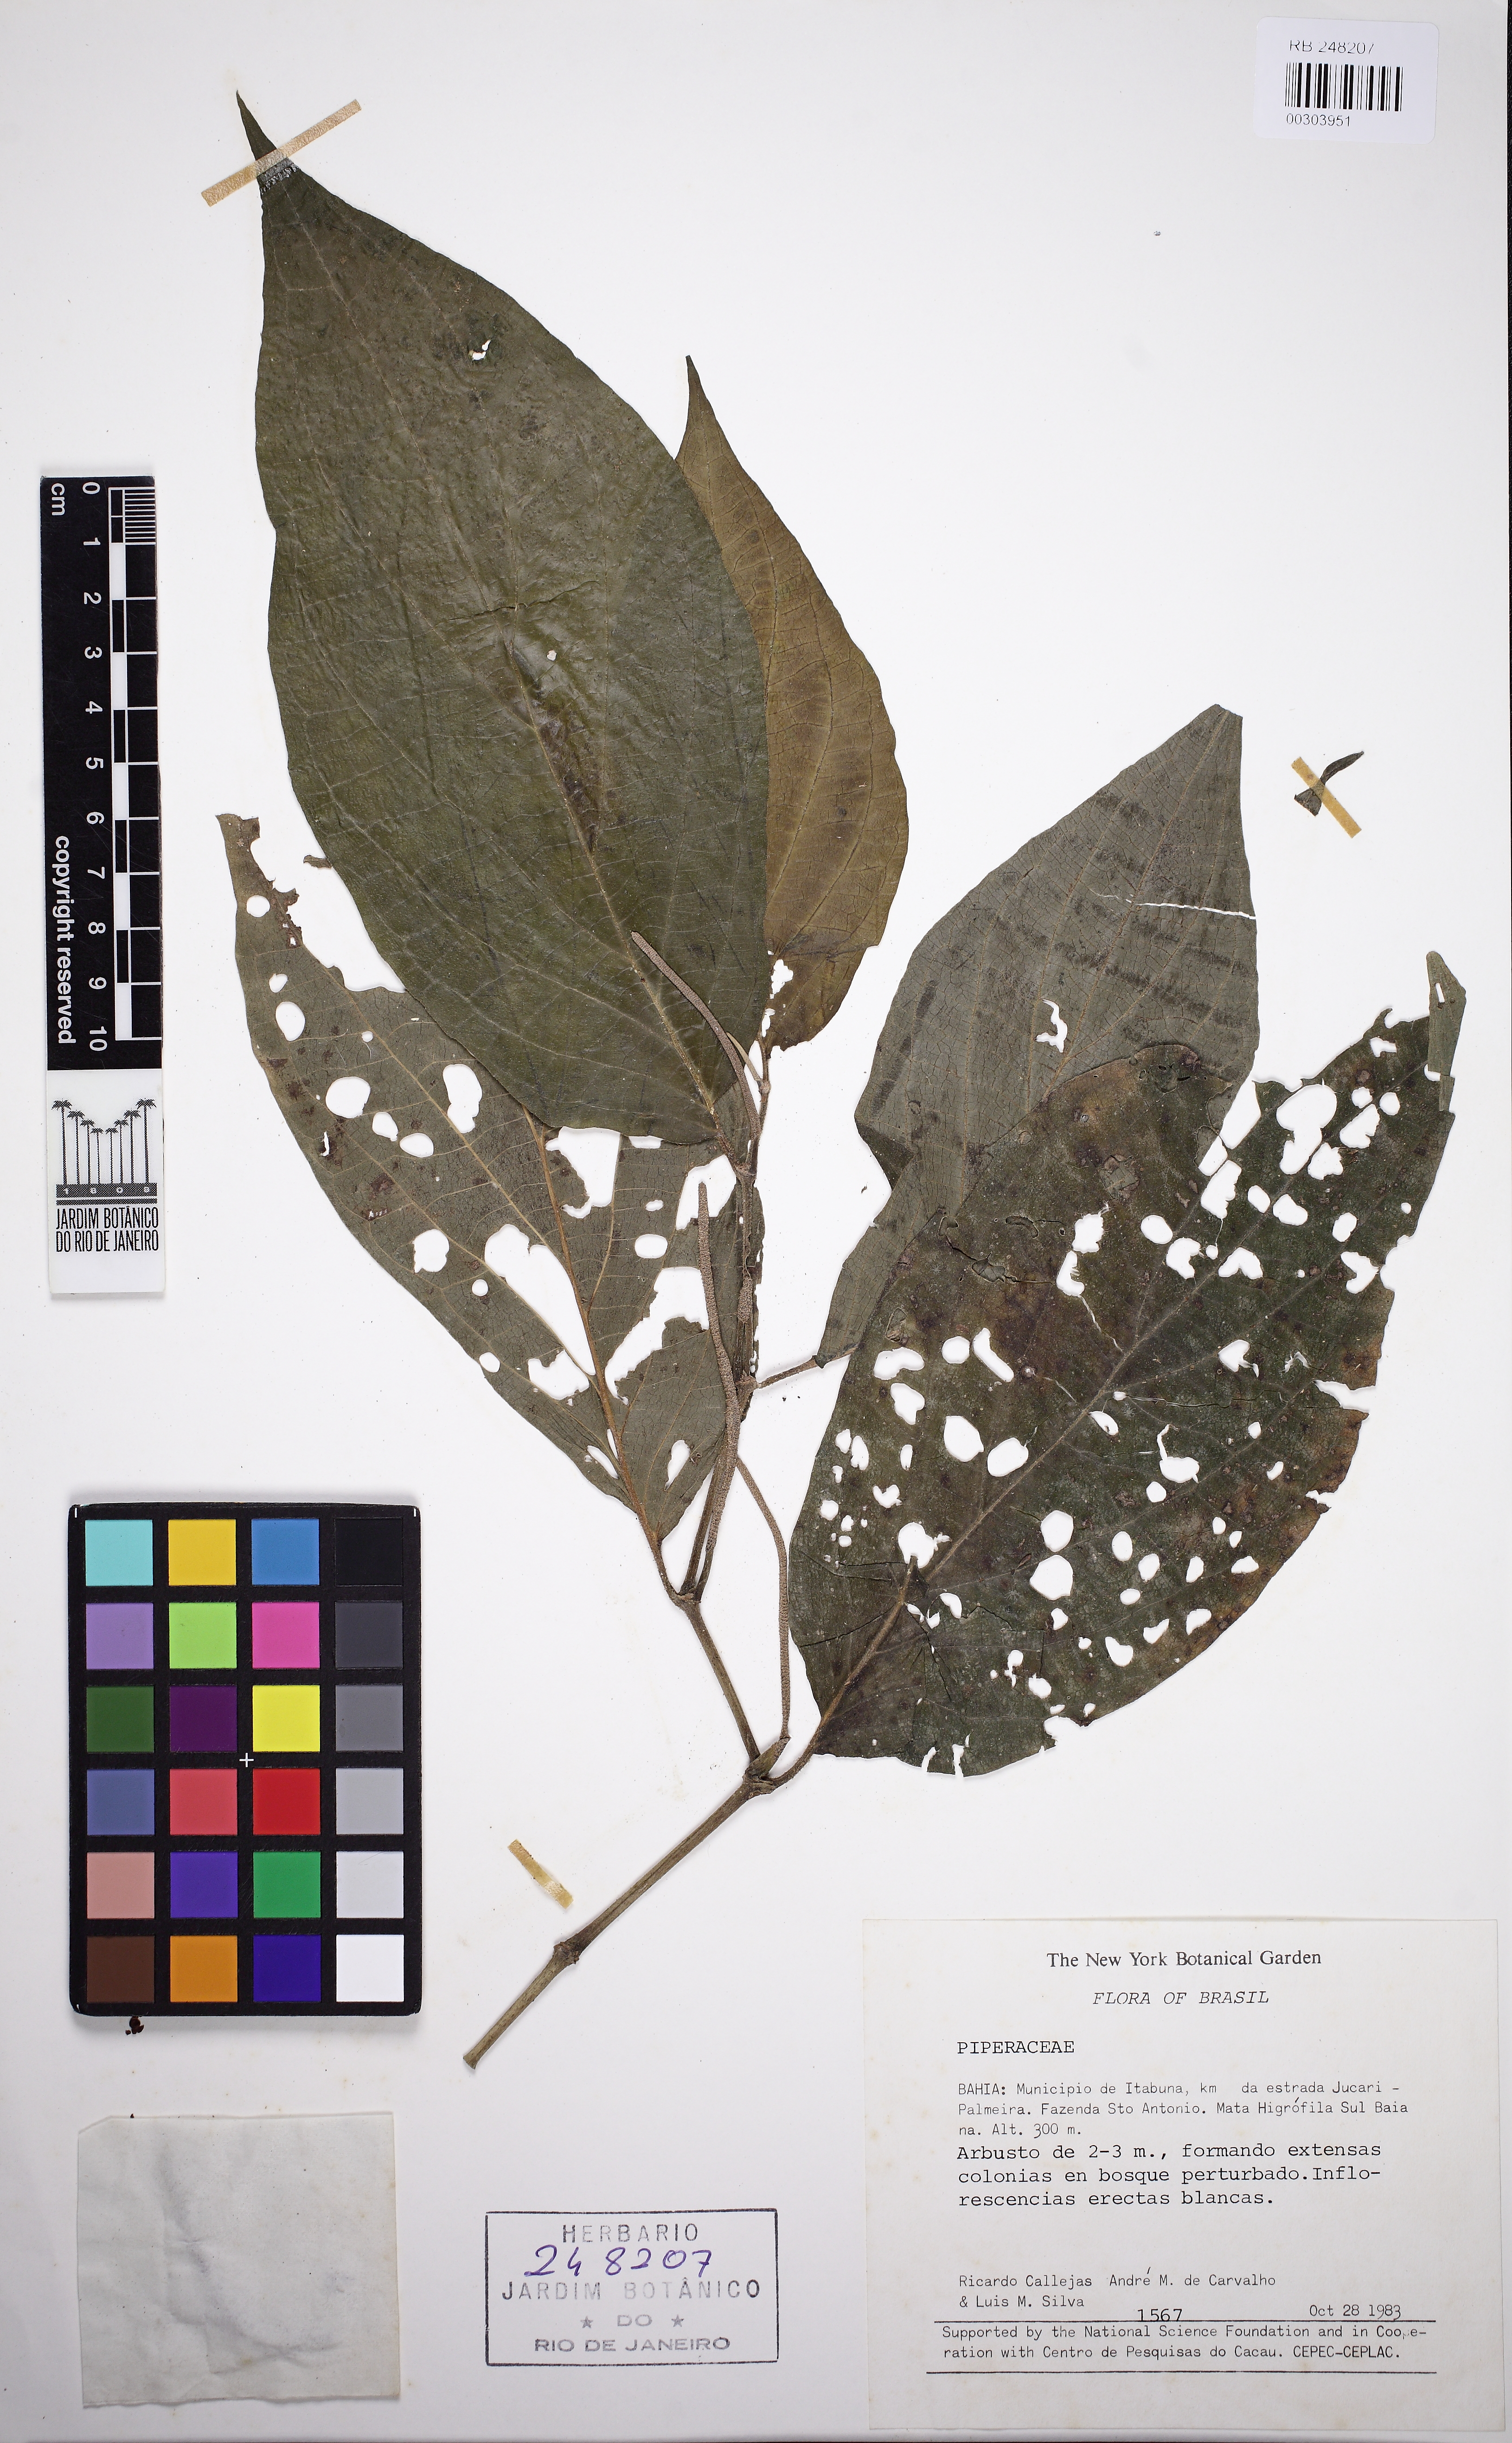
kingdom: Plantae
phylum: Tracheophyta
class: Magnoliopsida
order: Piperales
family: Piperaceae
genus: Piper
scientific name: Piper
